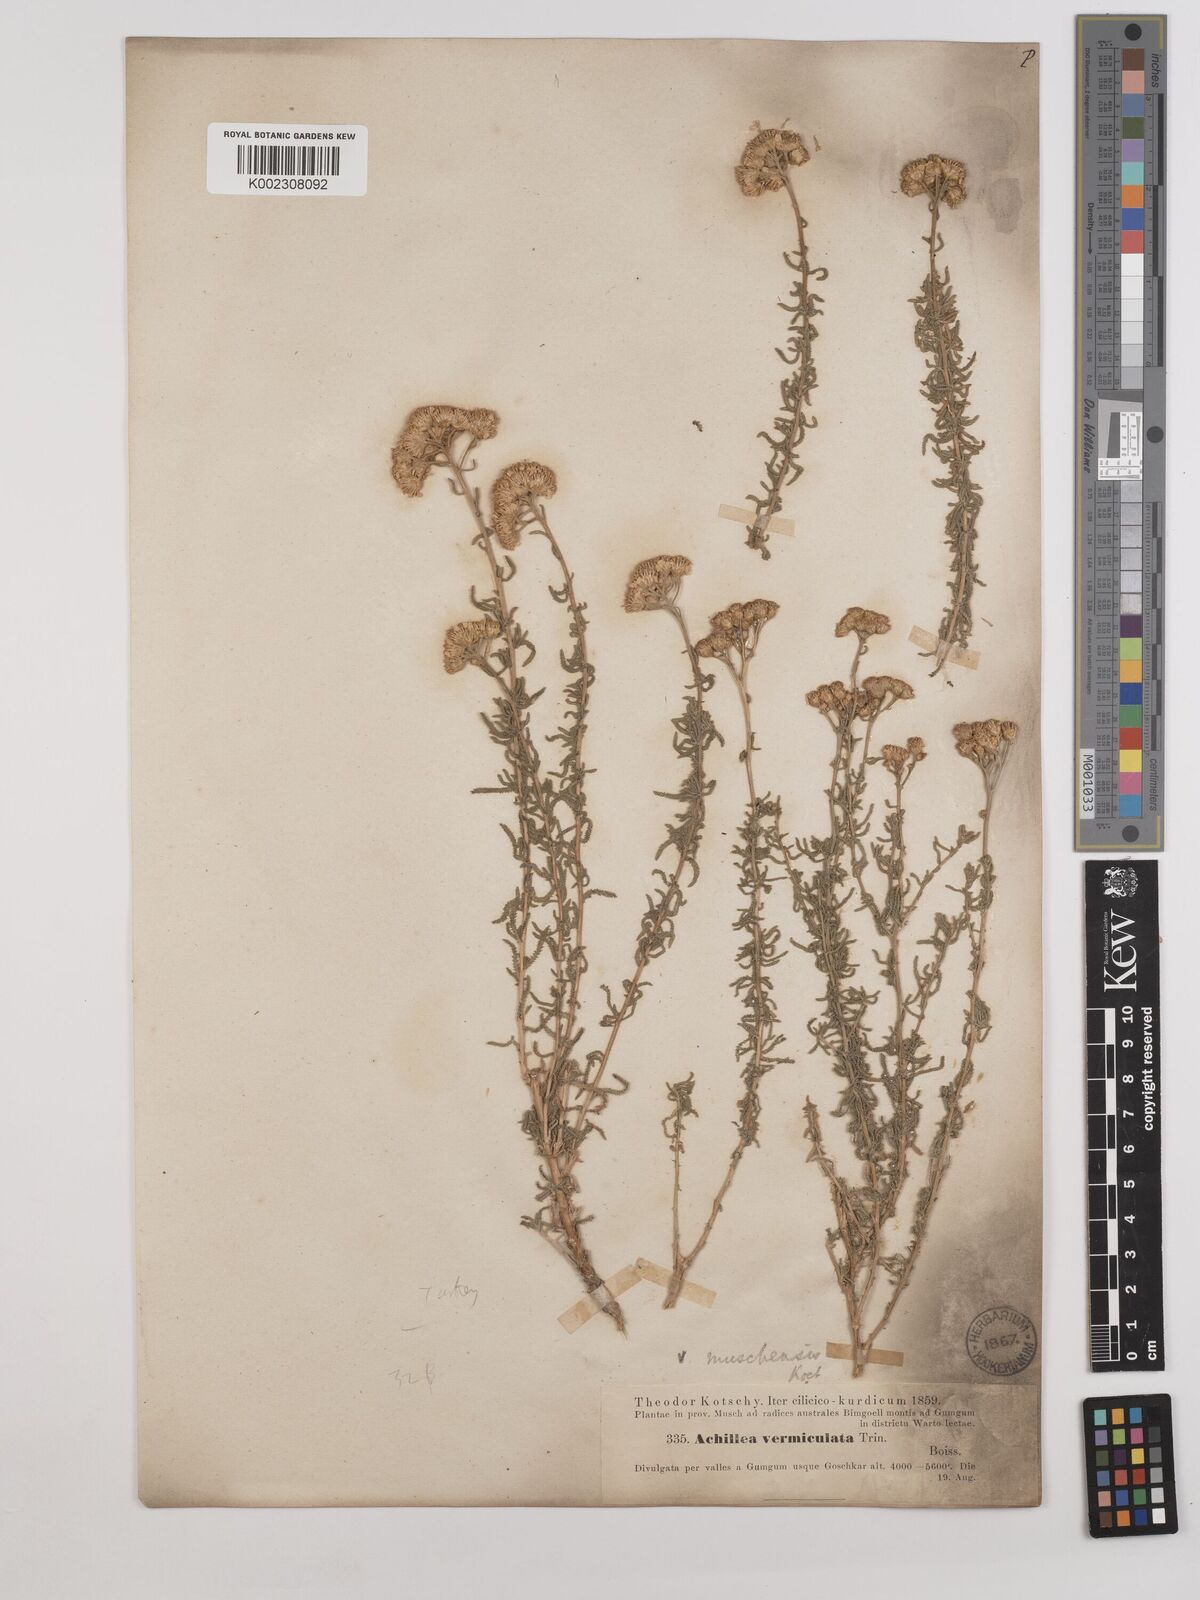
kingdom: Plantae
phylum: Tracheophyta
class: Magnoliopsida
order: Asterales
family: Asteraceae
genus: Achillea
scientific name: Achillea vermicularis
